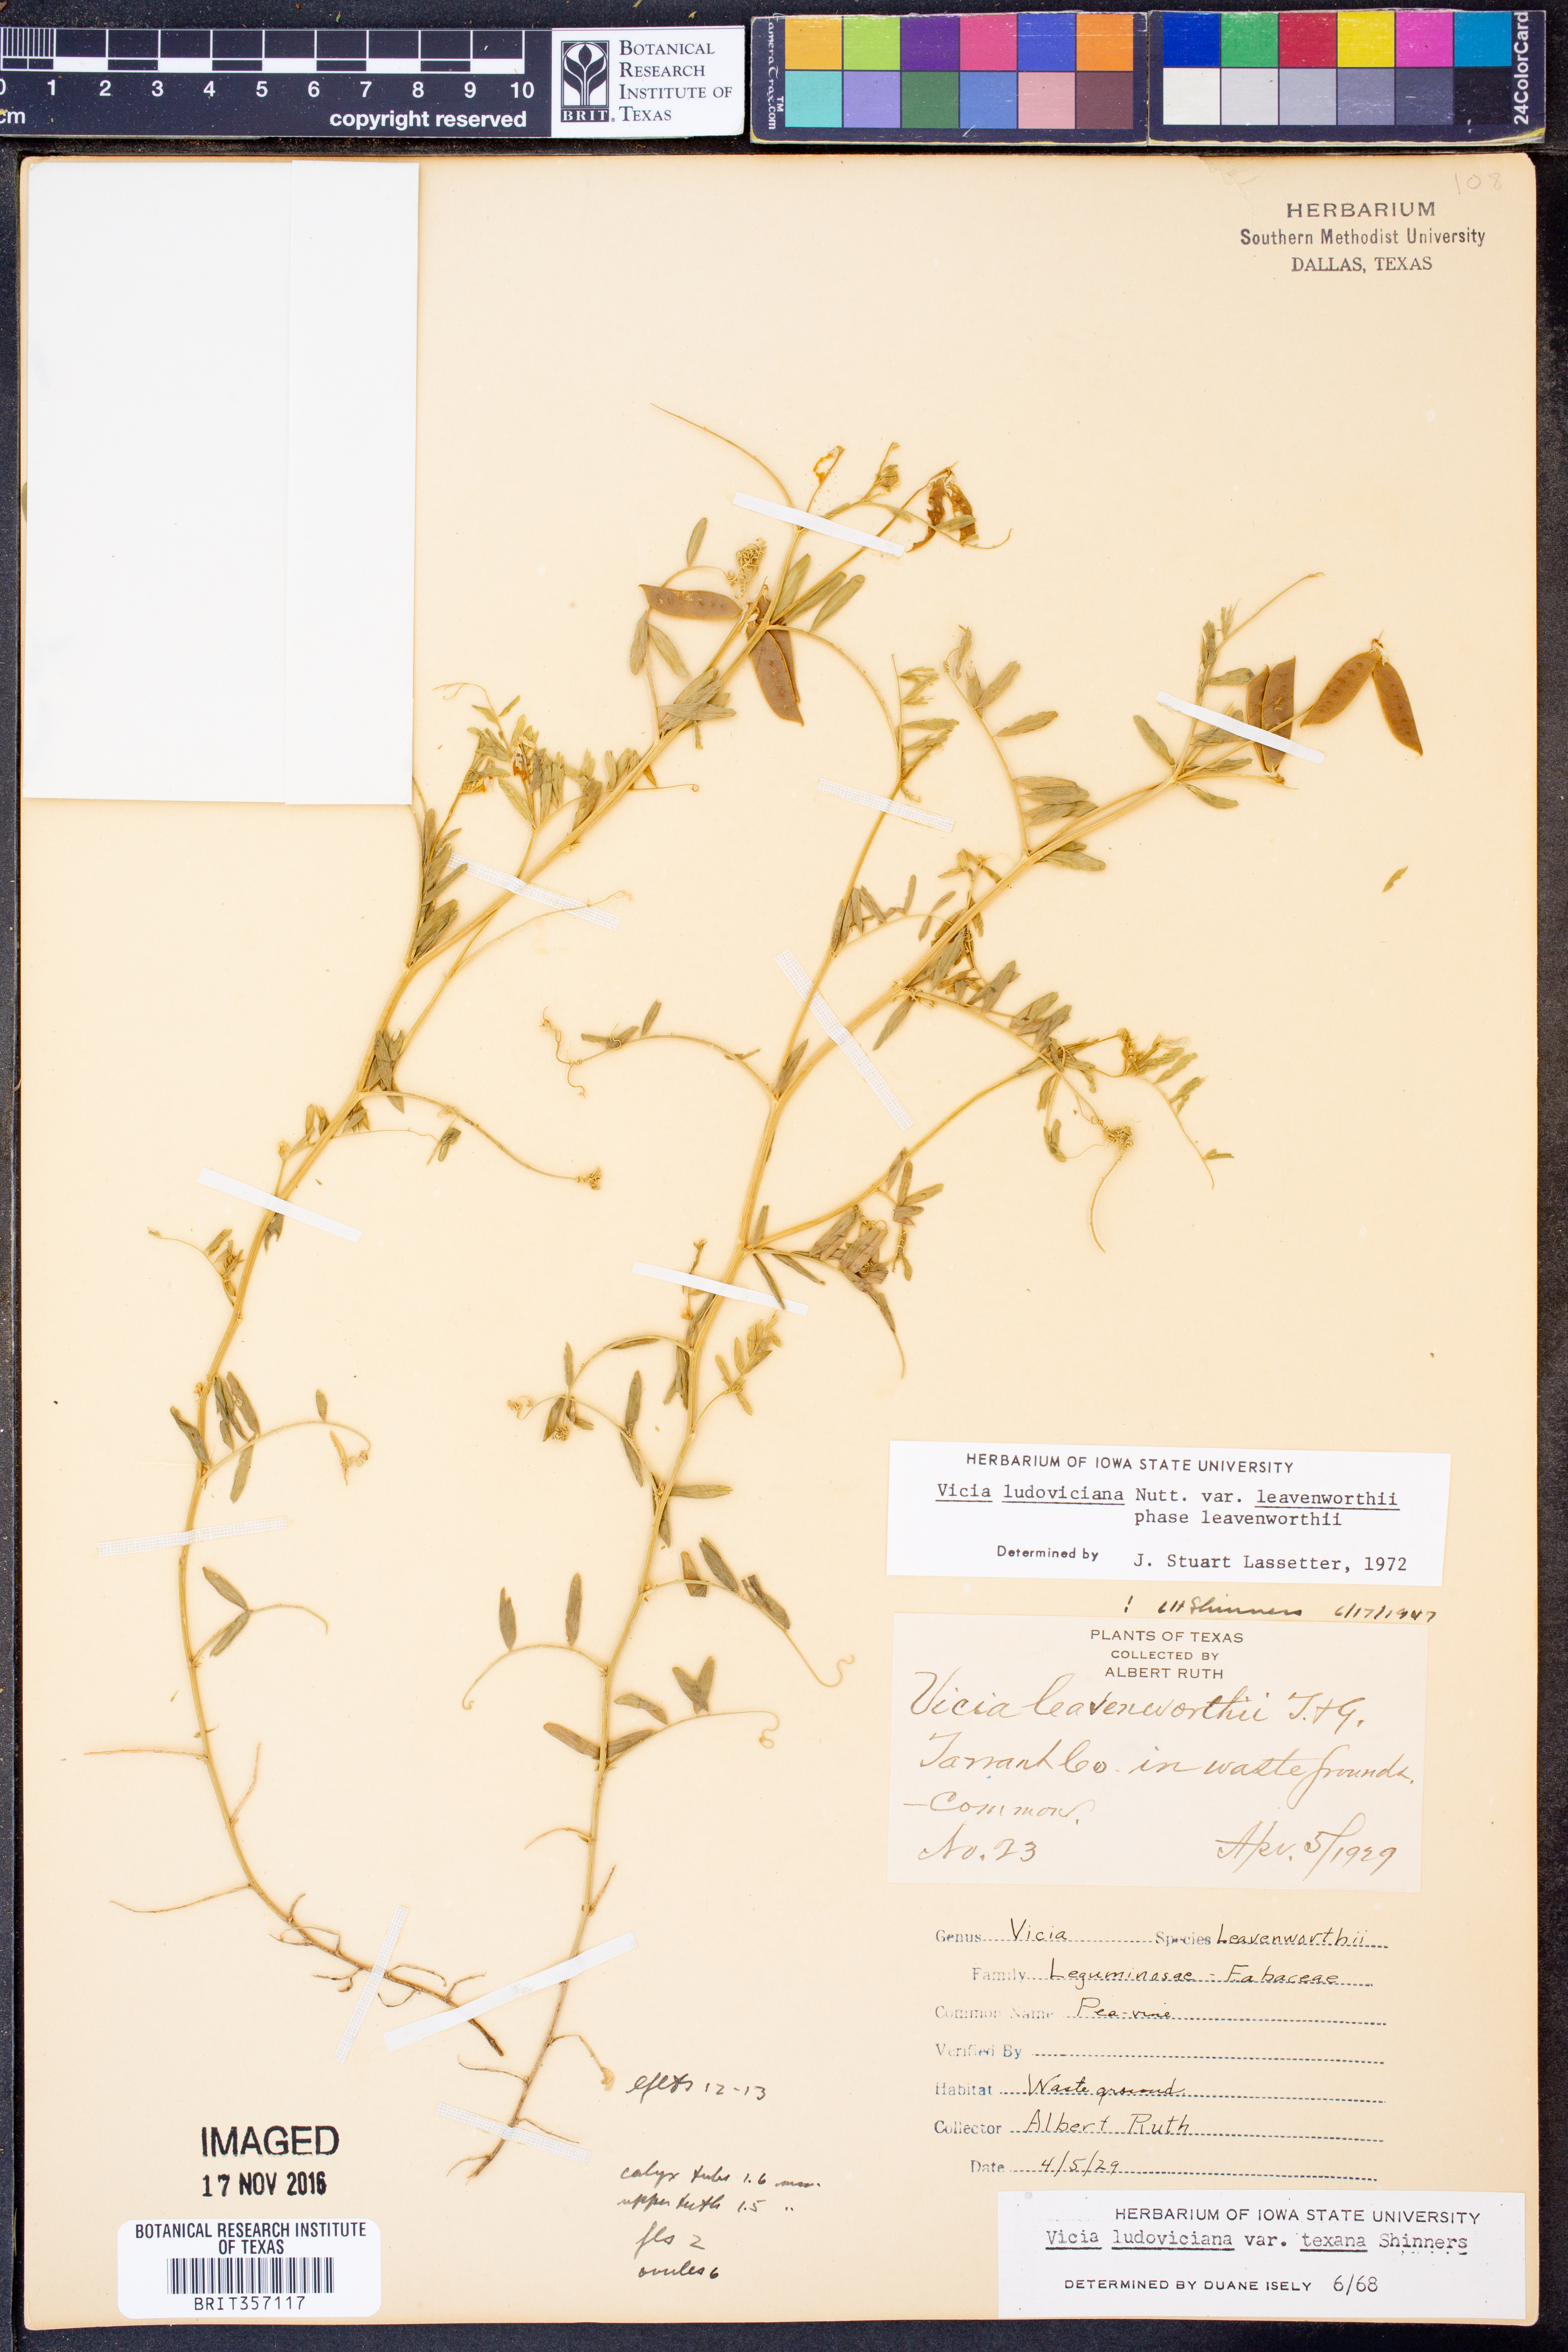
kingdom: Plantae
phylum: Tracheophyta
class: Magnoliopsida
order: Fabales
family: Fabaceae
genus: Vicia
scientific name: Vicia ludoviciana
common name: Louisiana vetch
